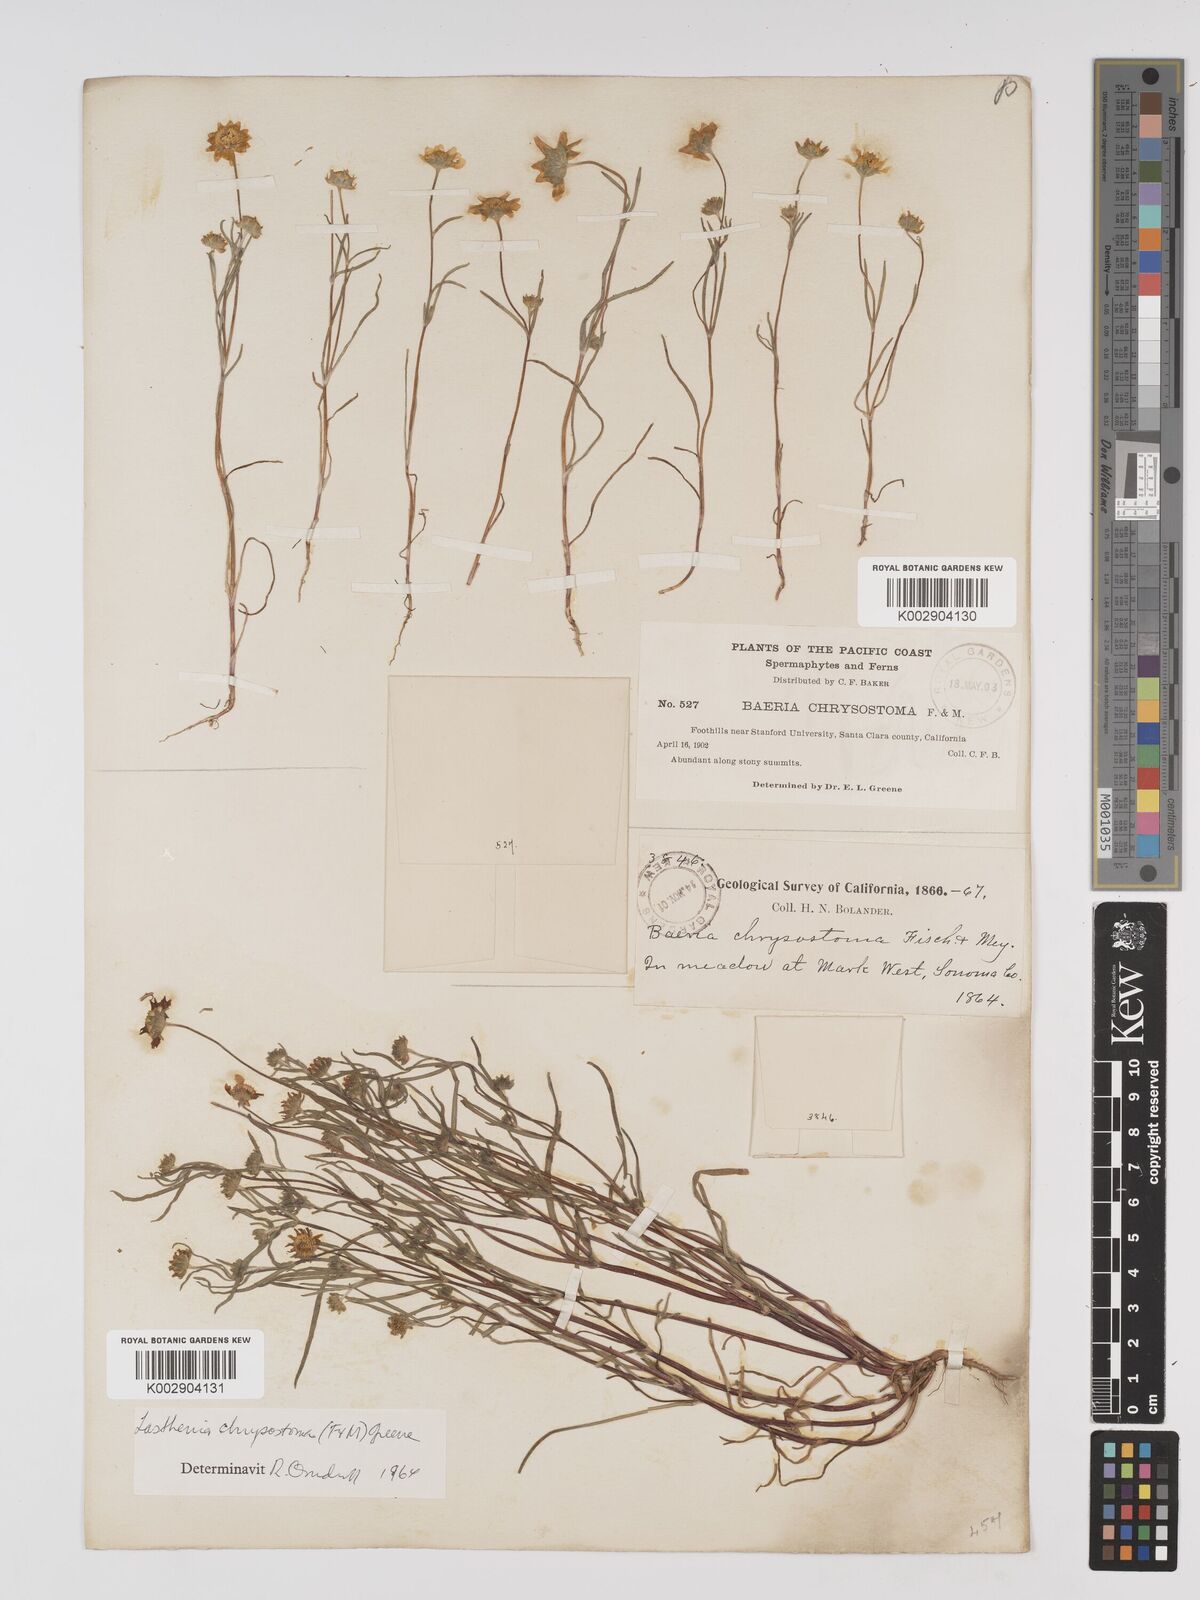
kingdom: Plantae
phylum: Tracheophyta
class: Magnoliopsida
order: Asterales
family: Asteraceae
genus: Lasthenia
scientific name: Lasthenia californica
